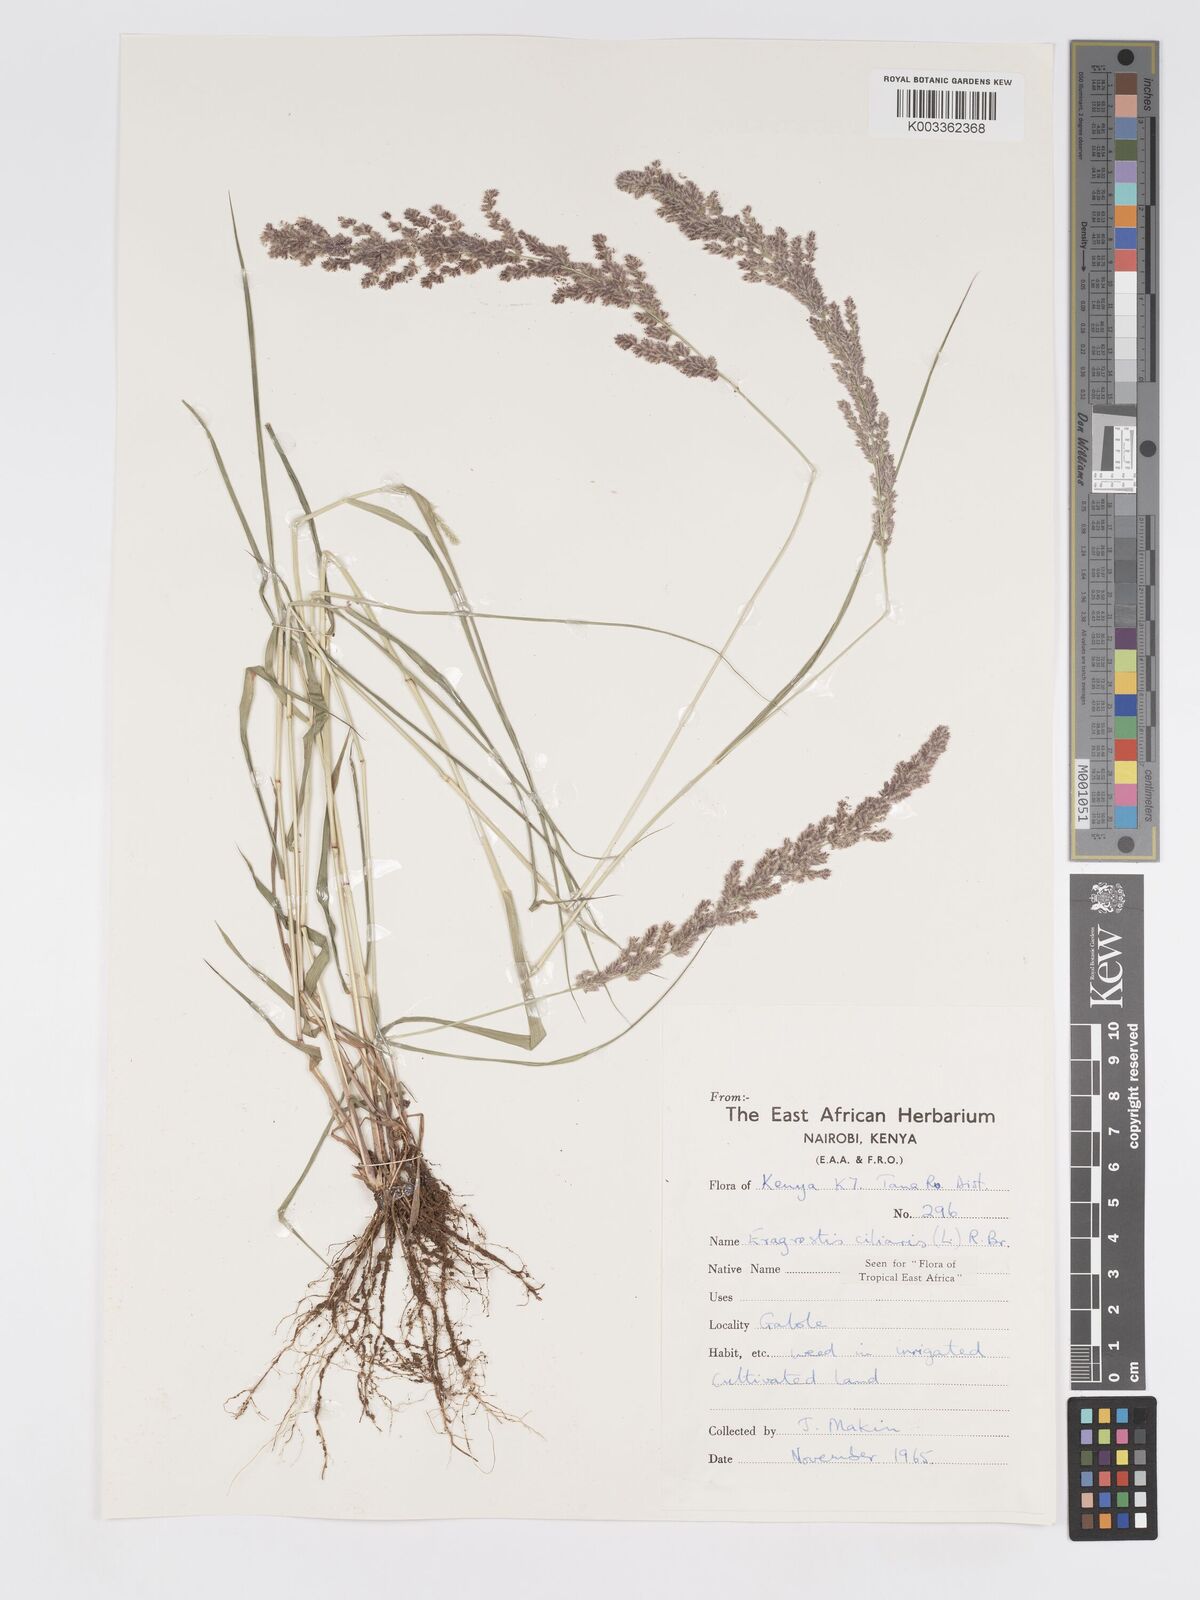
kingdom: Plantae
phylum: Tracheophyta
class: Liliopsida
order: Poales
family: Poaceae
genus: Eragrostis
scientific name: Eragrostis ciliaris
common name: Gophertail lovegrass
